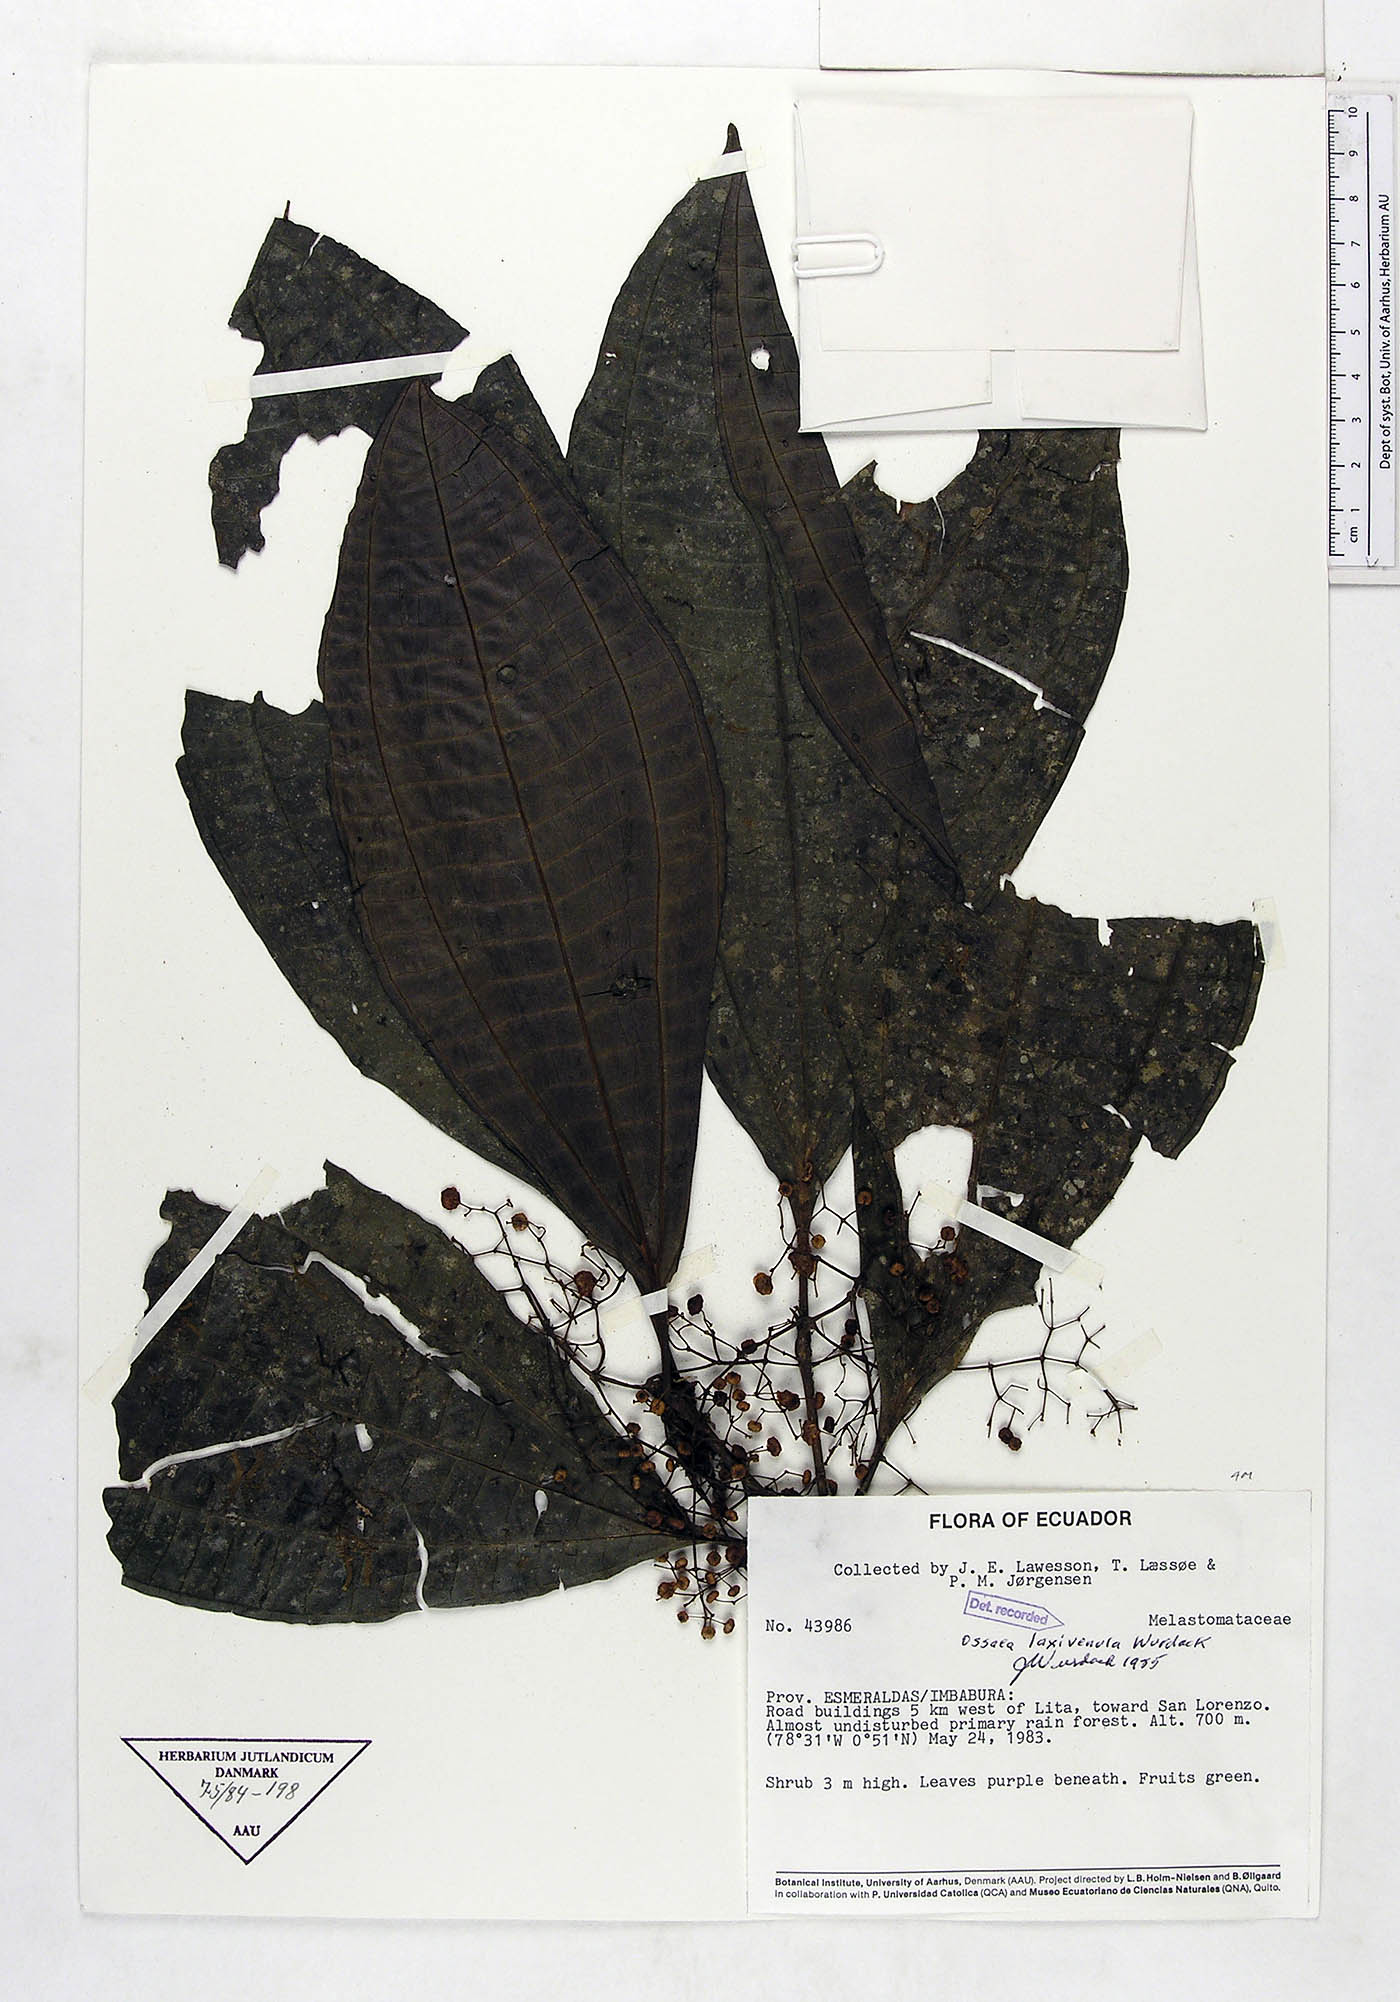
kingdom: Plantae
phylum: Tracheophyta
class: Magnoliopsida
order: Myrtales
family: Melastomataceae
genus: Miconia
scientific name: Miconia laxivenula
